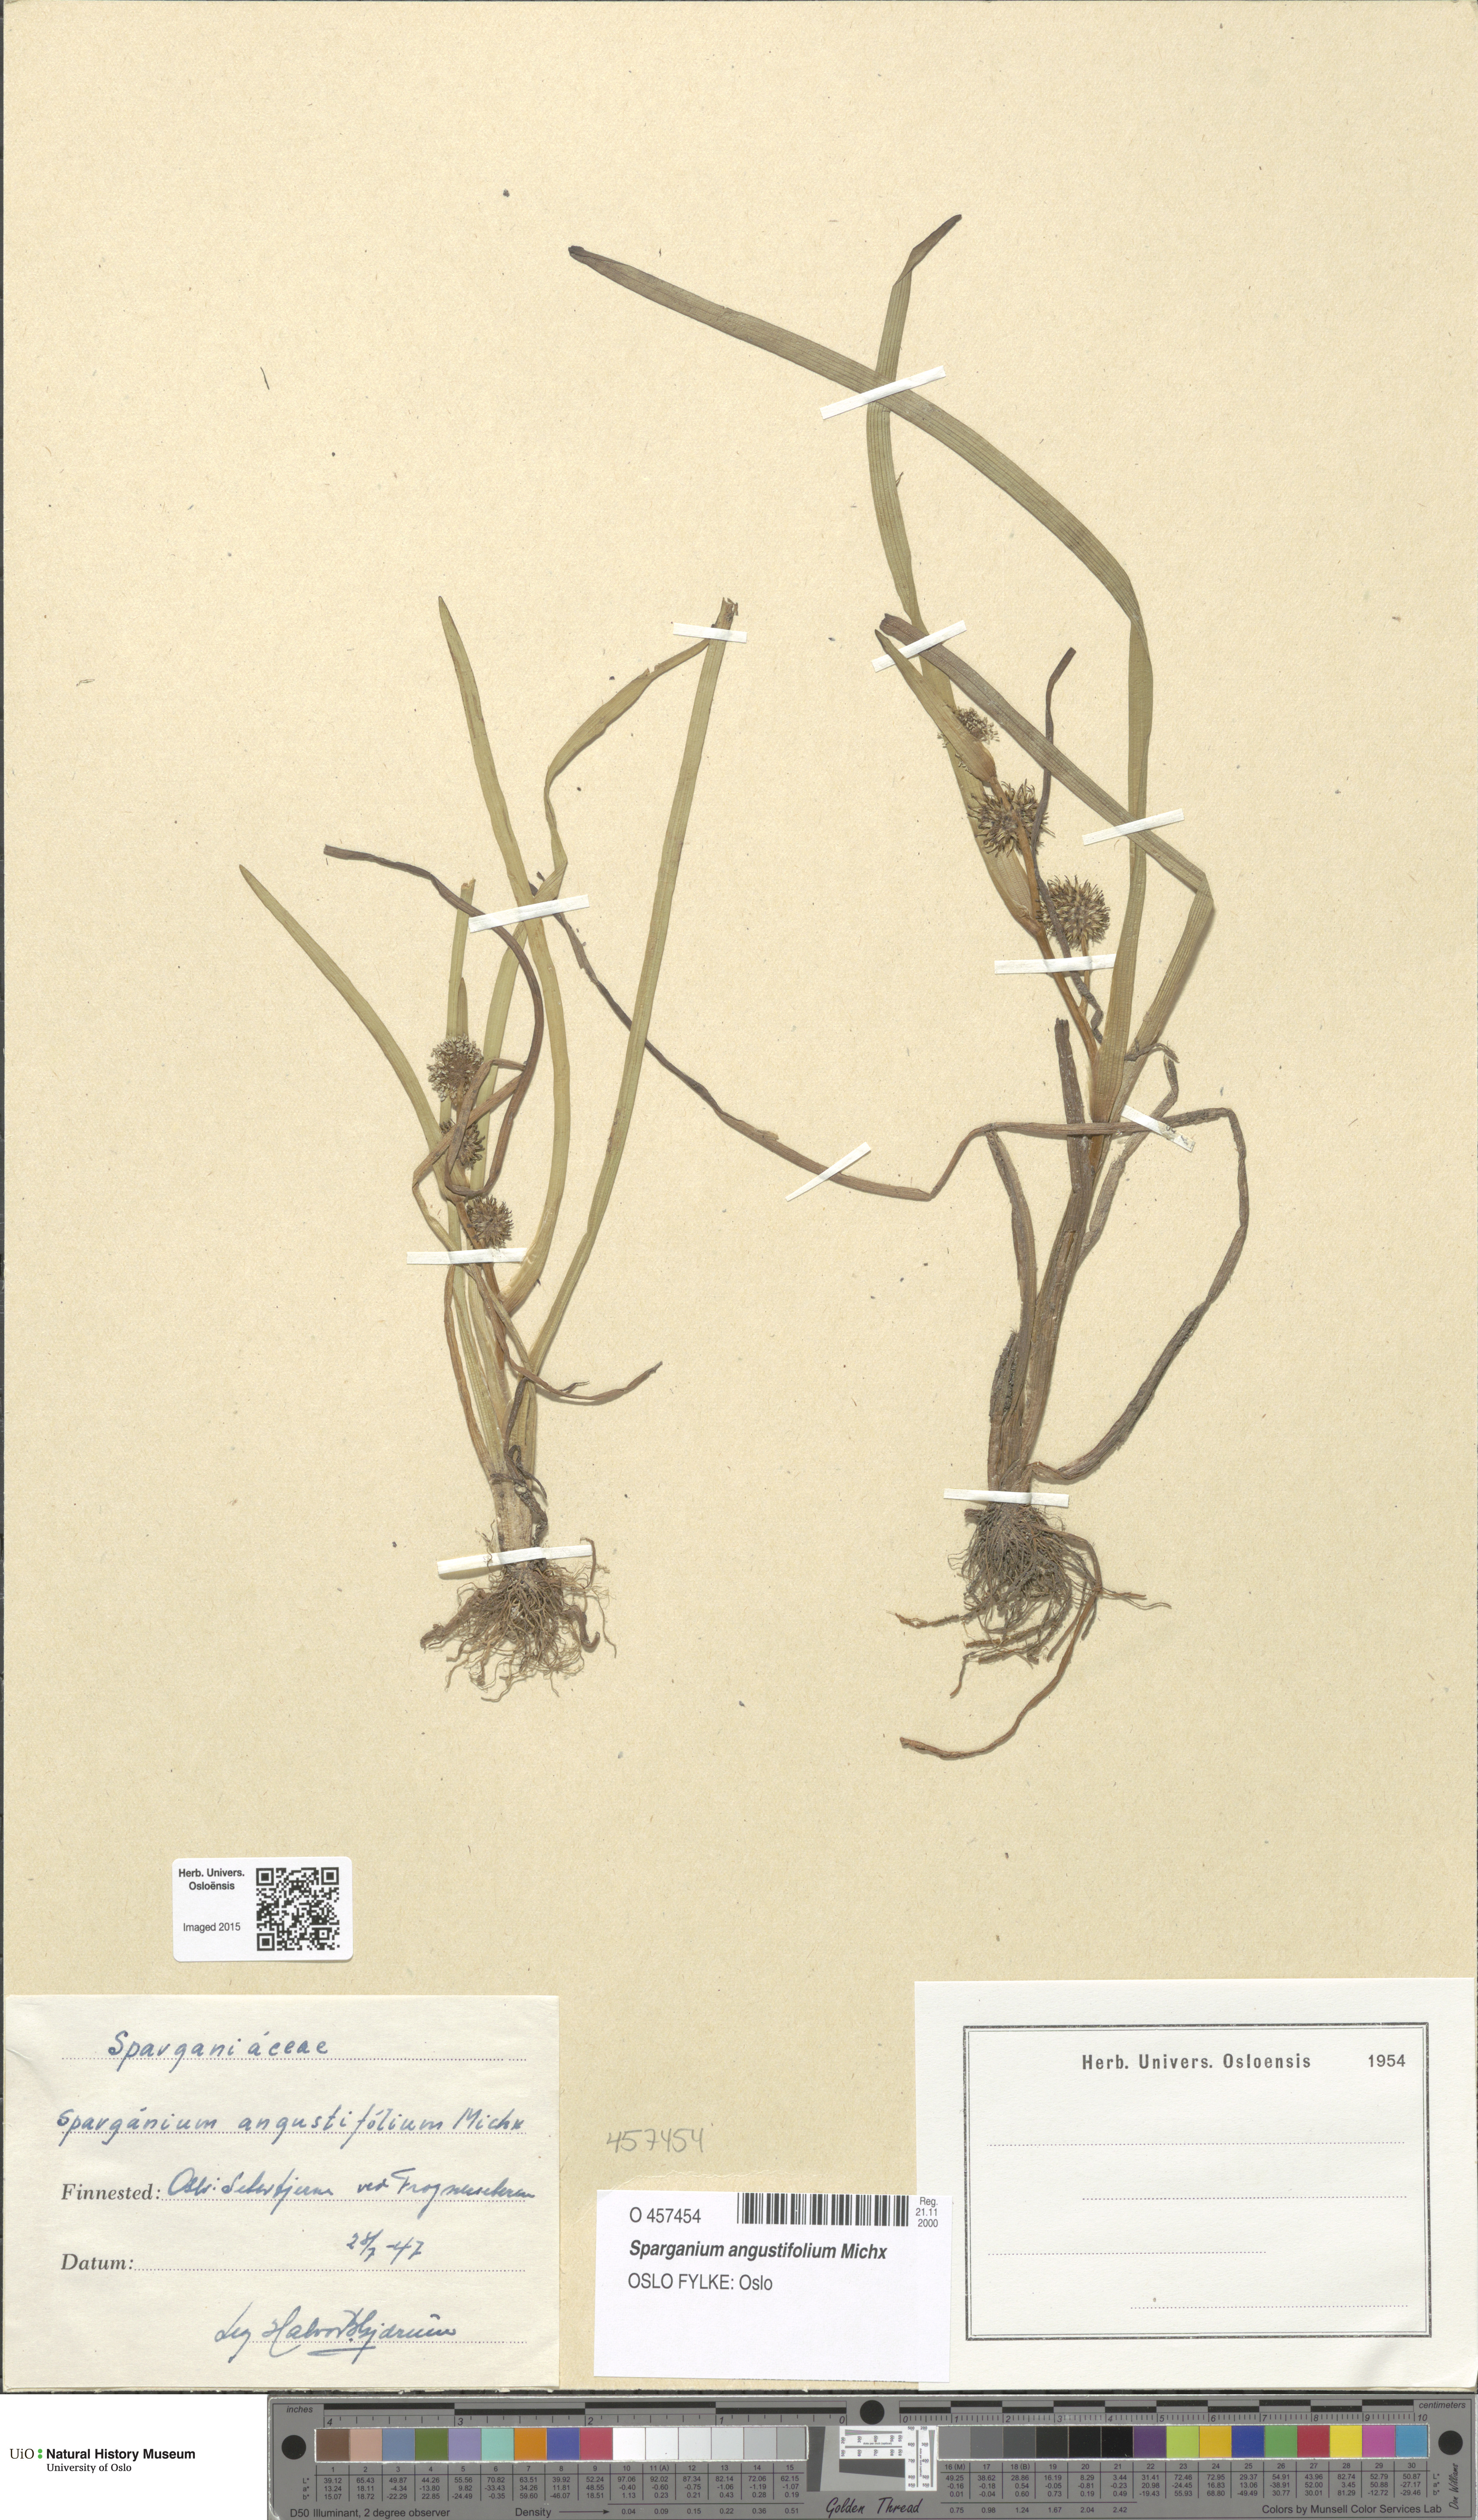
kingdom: Plantae
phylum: Tracheophyta
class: Liliopsida
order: Poales
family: Typhaceae
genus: Sparganium
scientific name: Sparganium angustifolium
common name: Floating bur-reed
